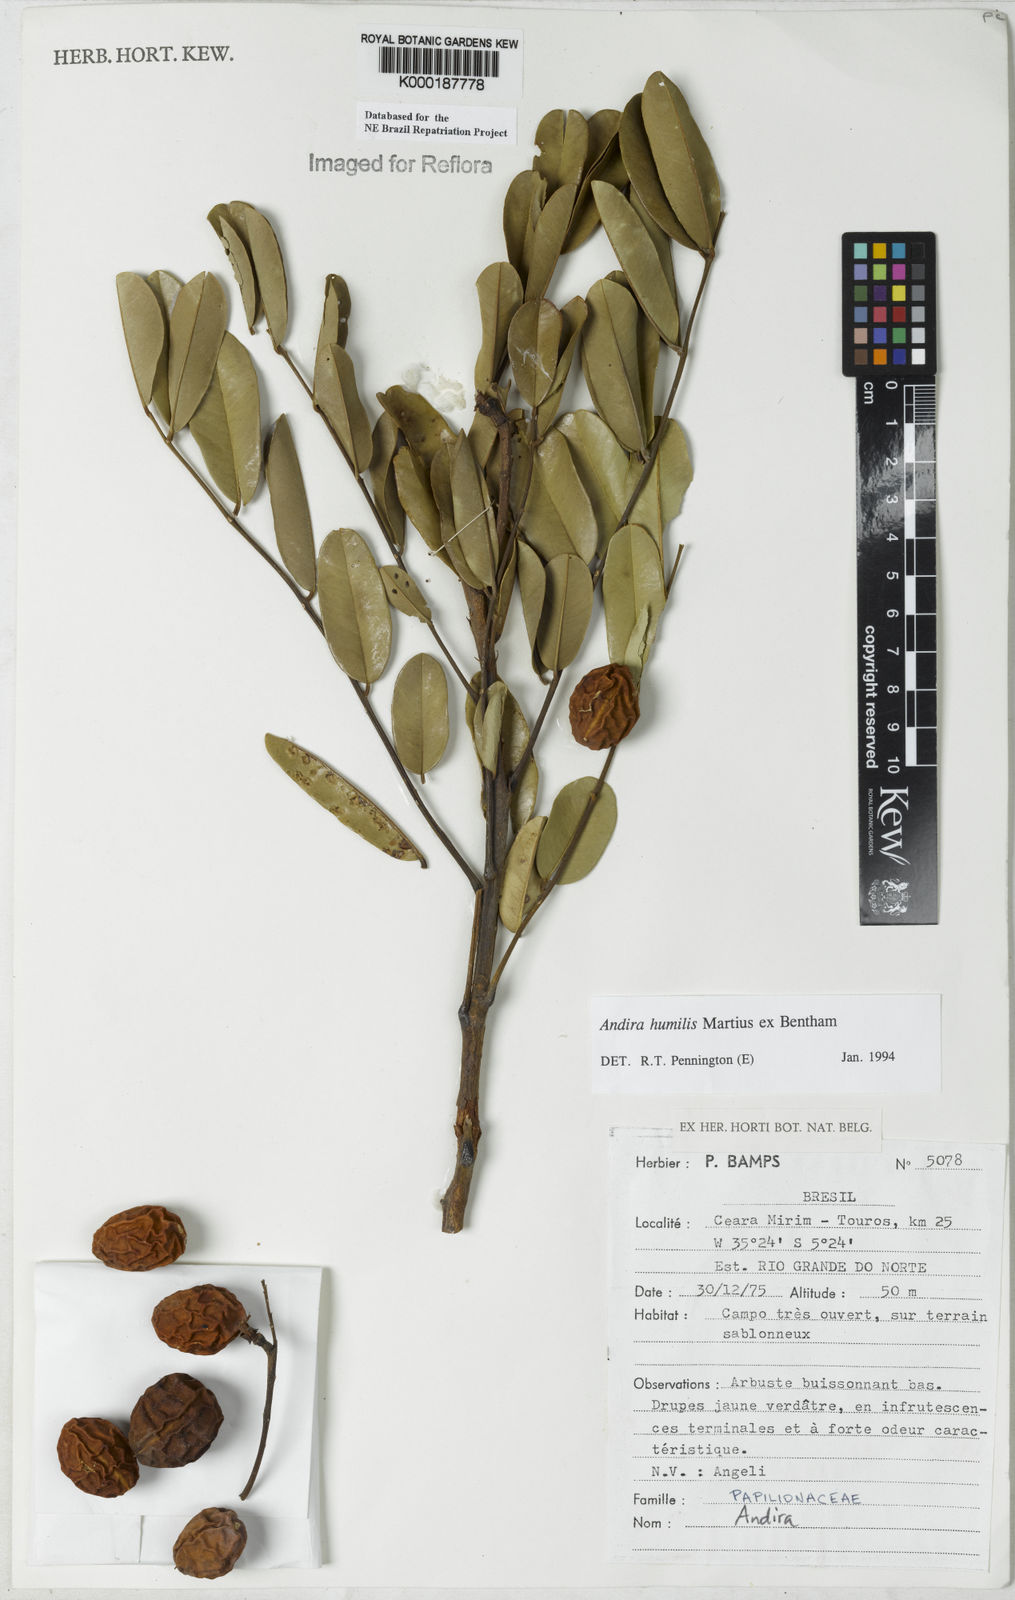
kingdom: Plantae
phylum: Tracheophyta
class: Magnoliopsida
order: Fabales
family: Fabaceae
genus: Andira
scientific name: Andira humilis
